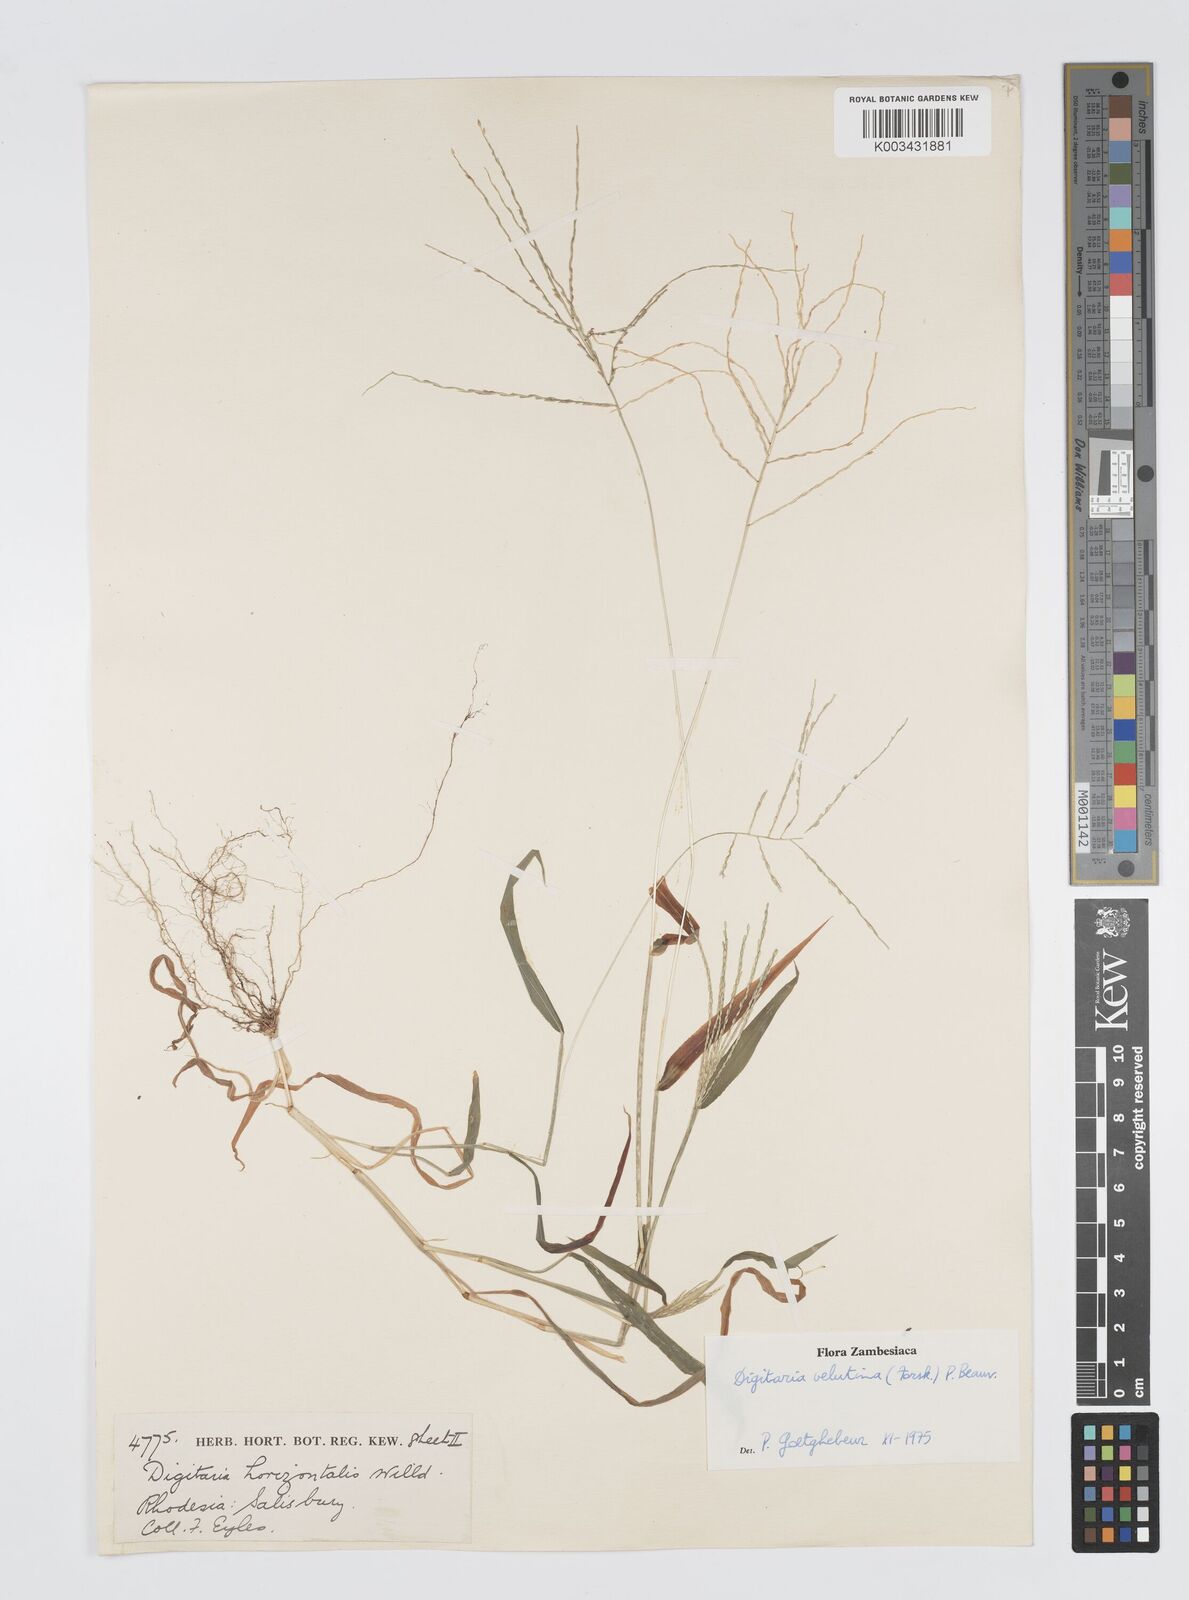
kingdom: Plantae
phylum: Tracheophyta
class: Liliopsida
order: Poales
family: Poaceae
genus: Digitaria
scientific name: Digitaria velutina
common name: Long-plume finger grass
